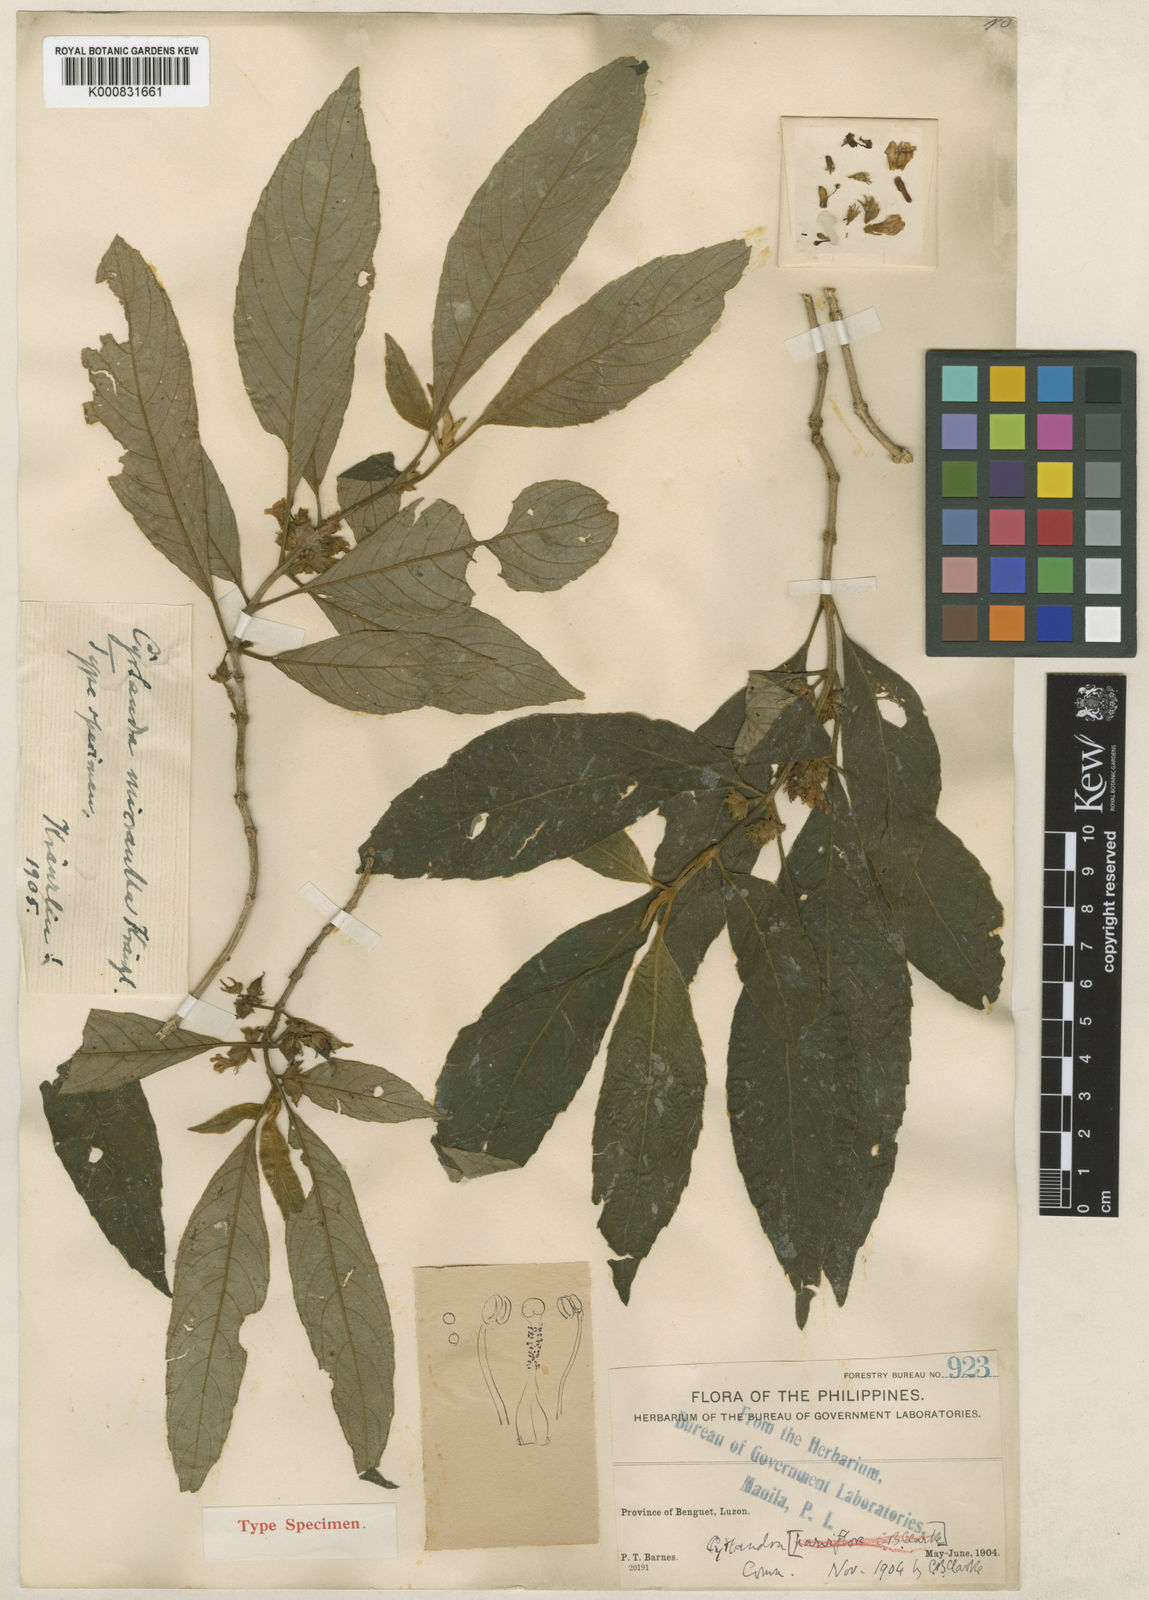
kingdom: Plantae
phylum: Tracheophyta
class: Magnoliopsida
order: Lamiales
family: Gesneriaceae
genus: Cyrtandra
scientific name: Cyrtandra parviflora
